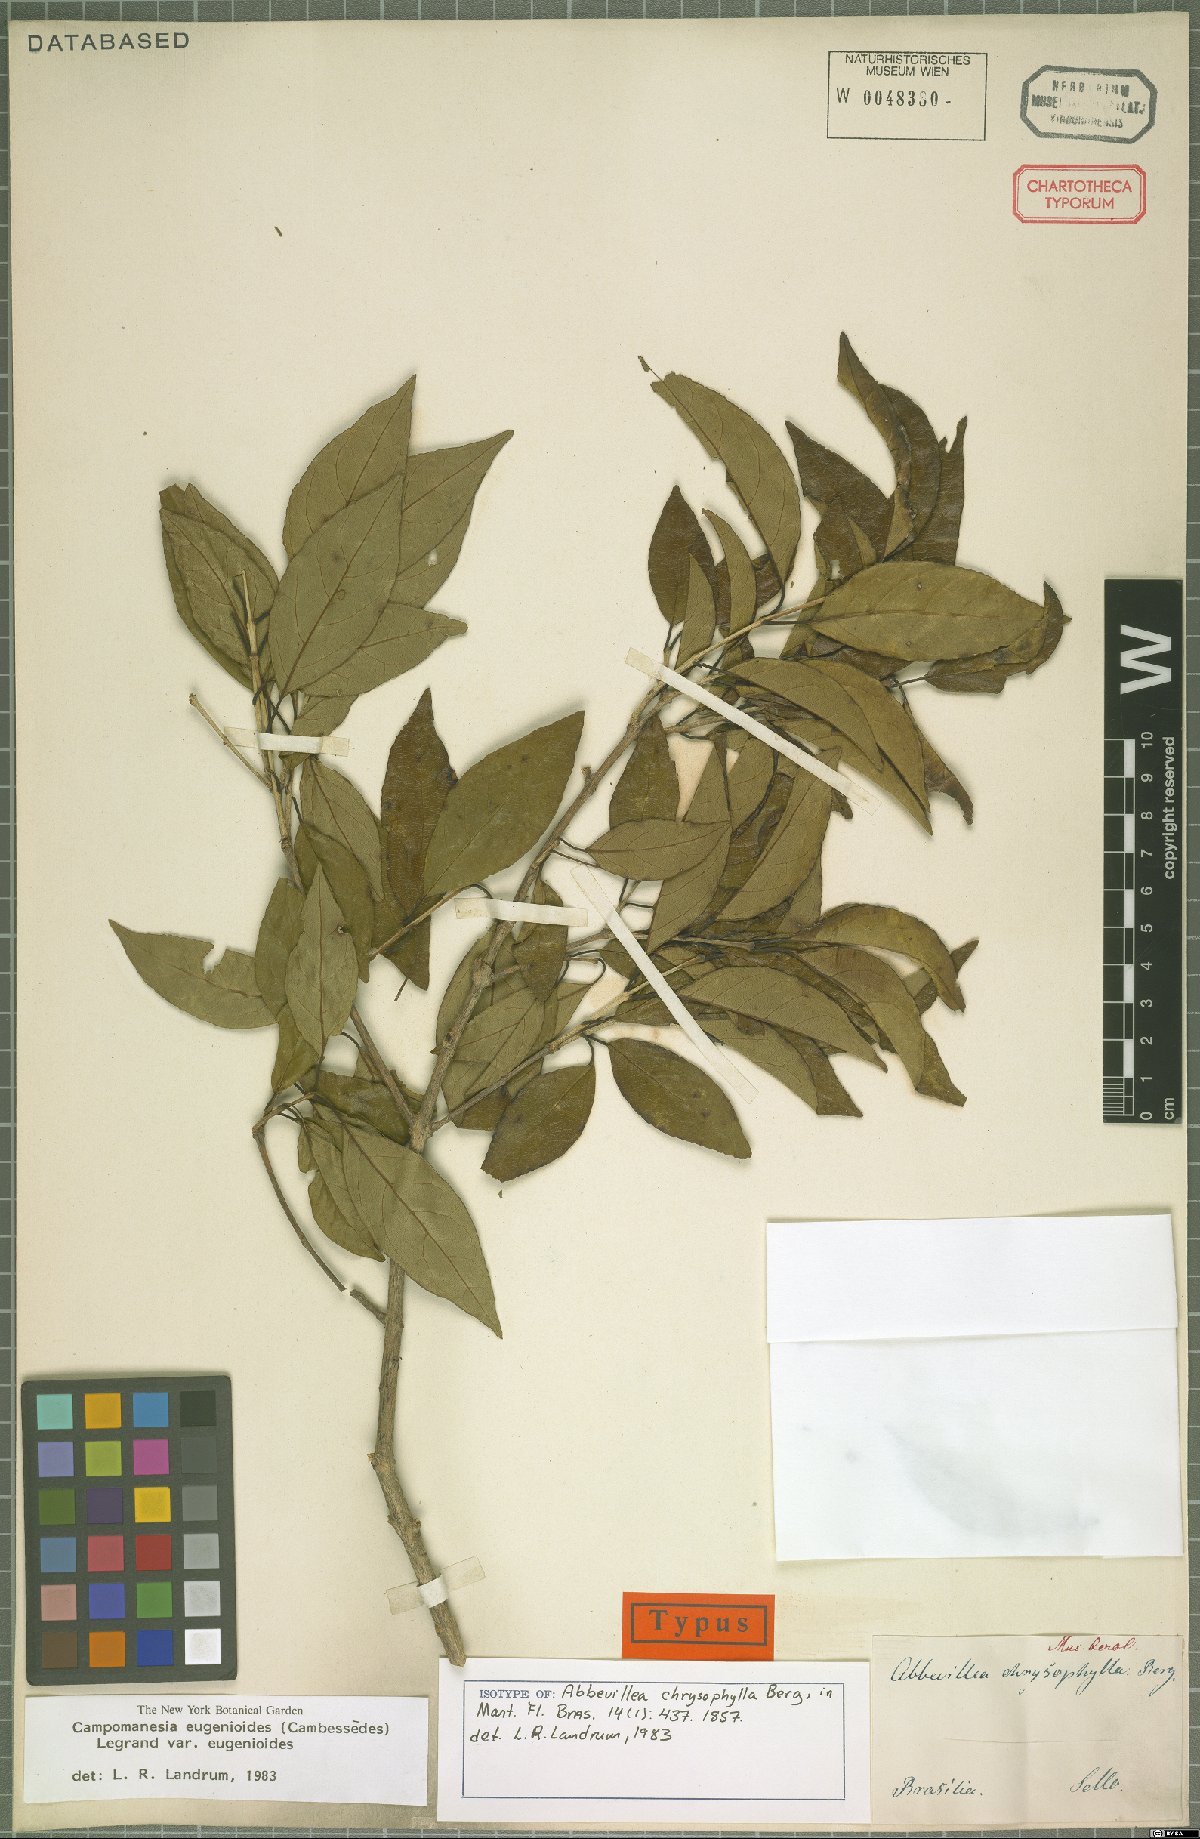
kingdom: Plantae
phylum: Tracheophyta
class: Magnoliopsida
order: Myrtales
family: Myrtaceae
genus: Campomanesia
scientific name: Campomanesia eugenioides
